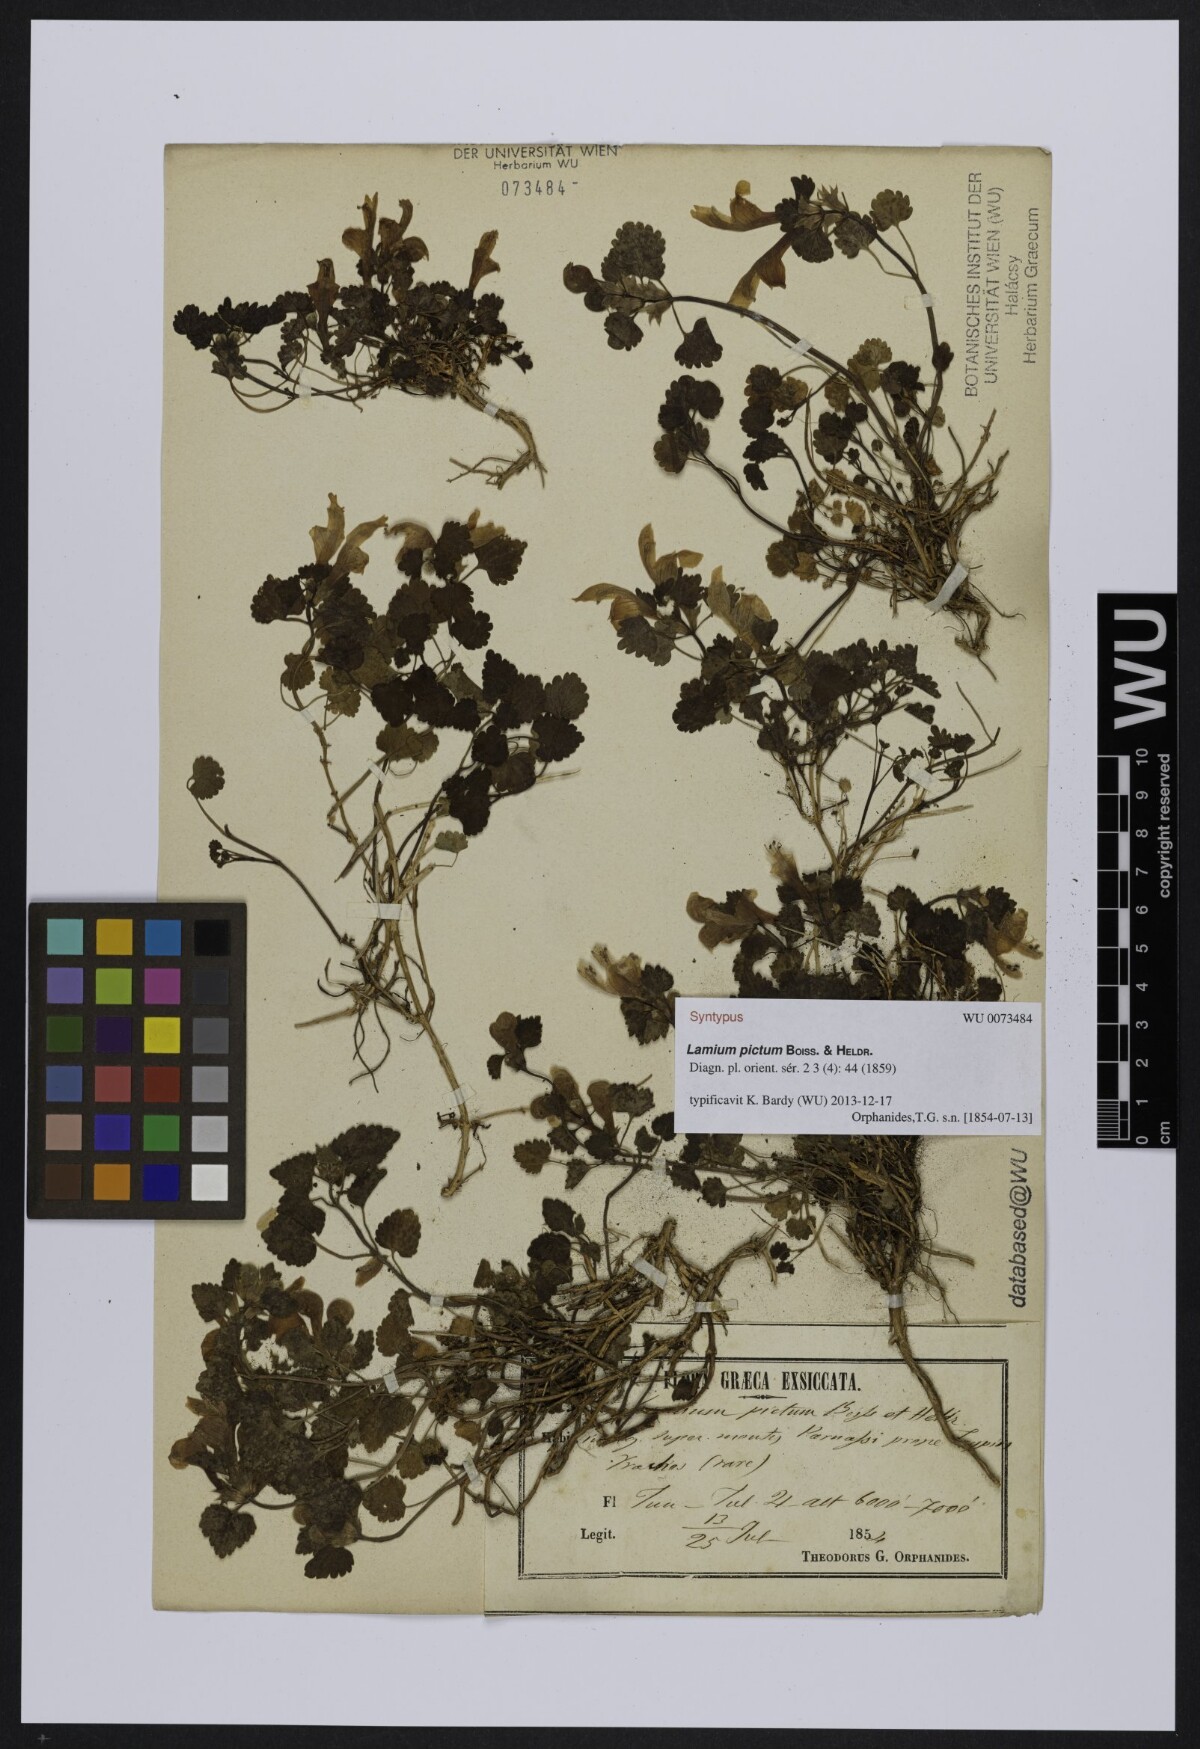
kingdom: Plantae
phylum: Tracheophyta
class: Magnoliopsida
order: Lamiales
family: Lamiaceae
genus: Lamium
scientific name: Lamium garganicum
